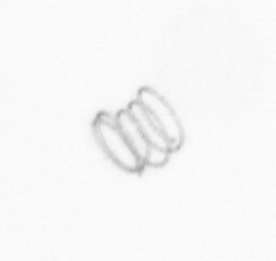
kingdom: Chromista
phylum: Ochrophyta
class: Bacillariophyceae
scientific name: Bacillariophyceae
